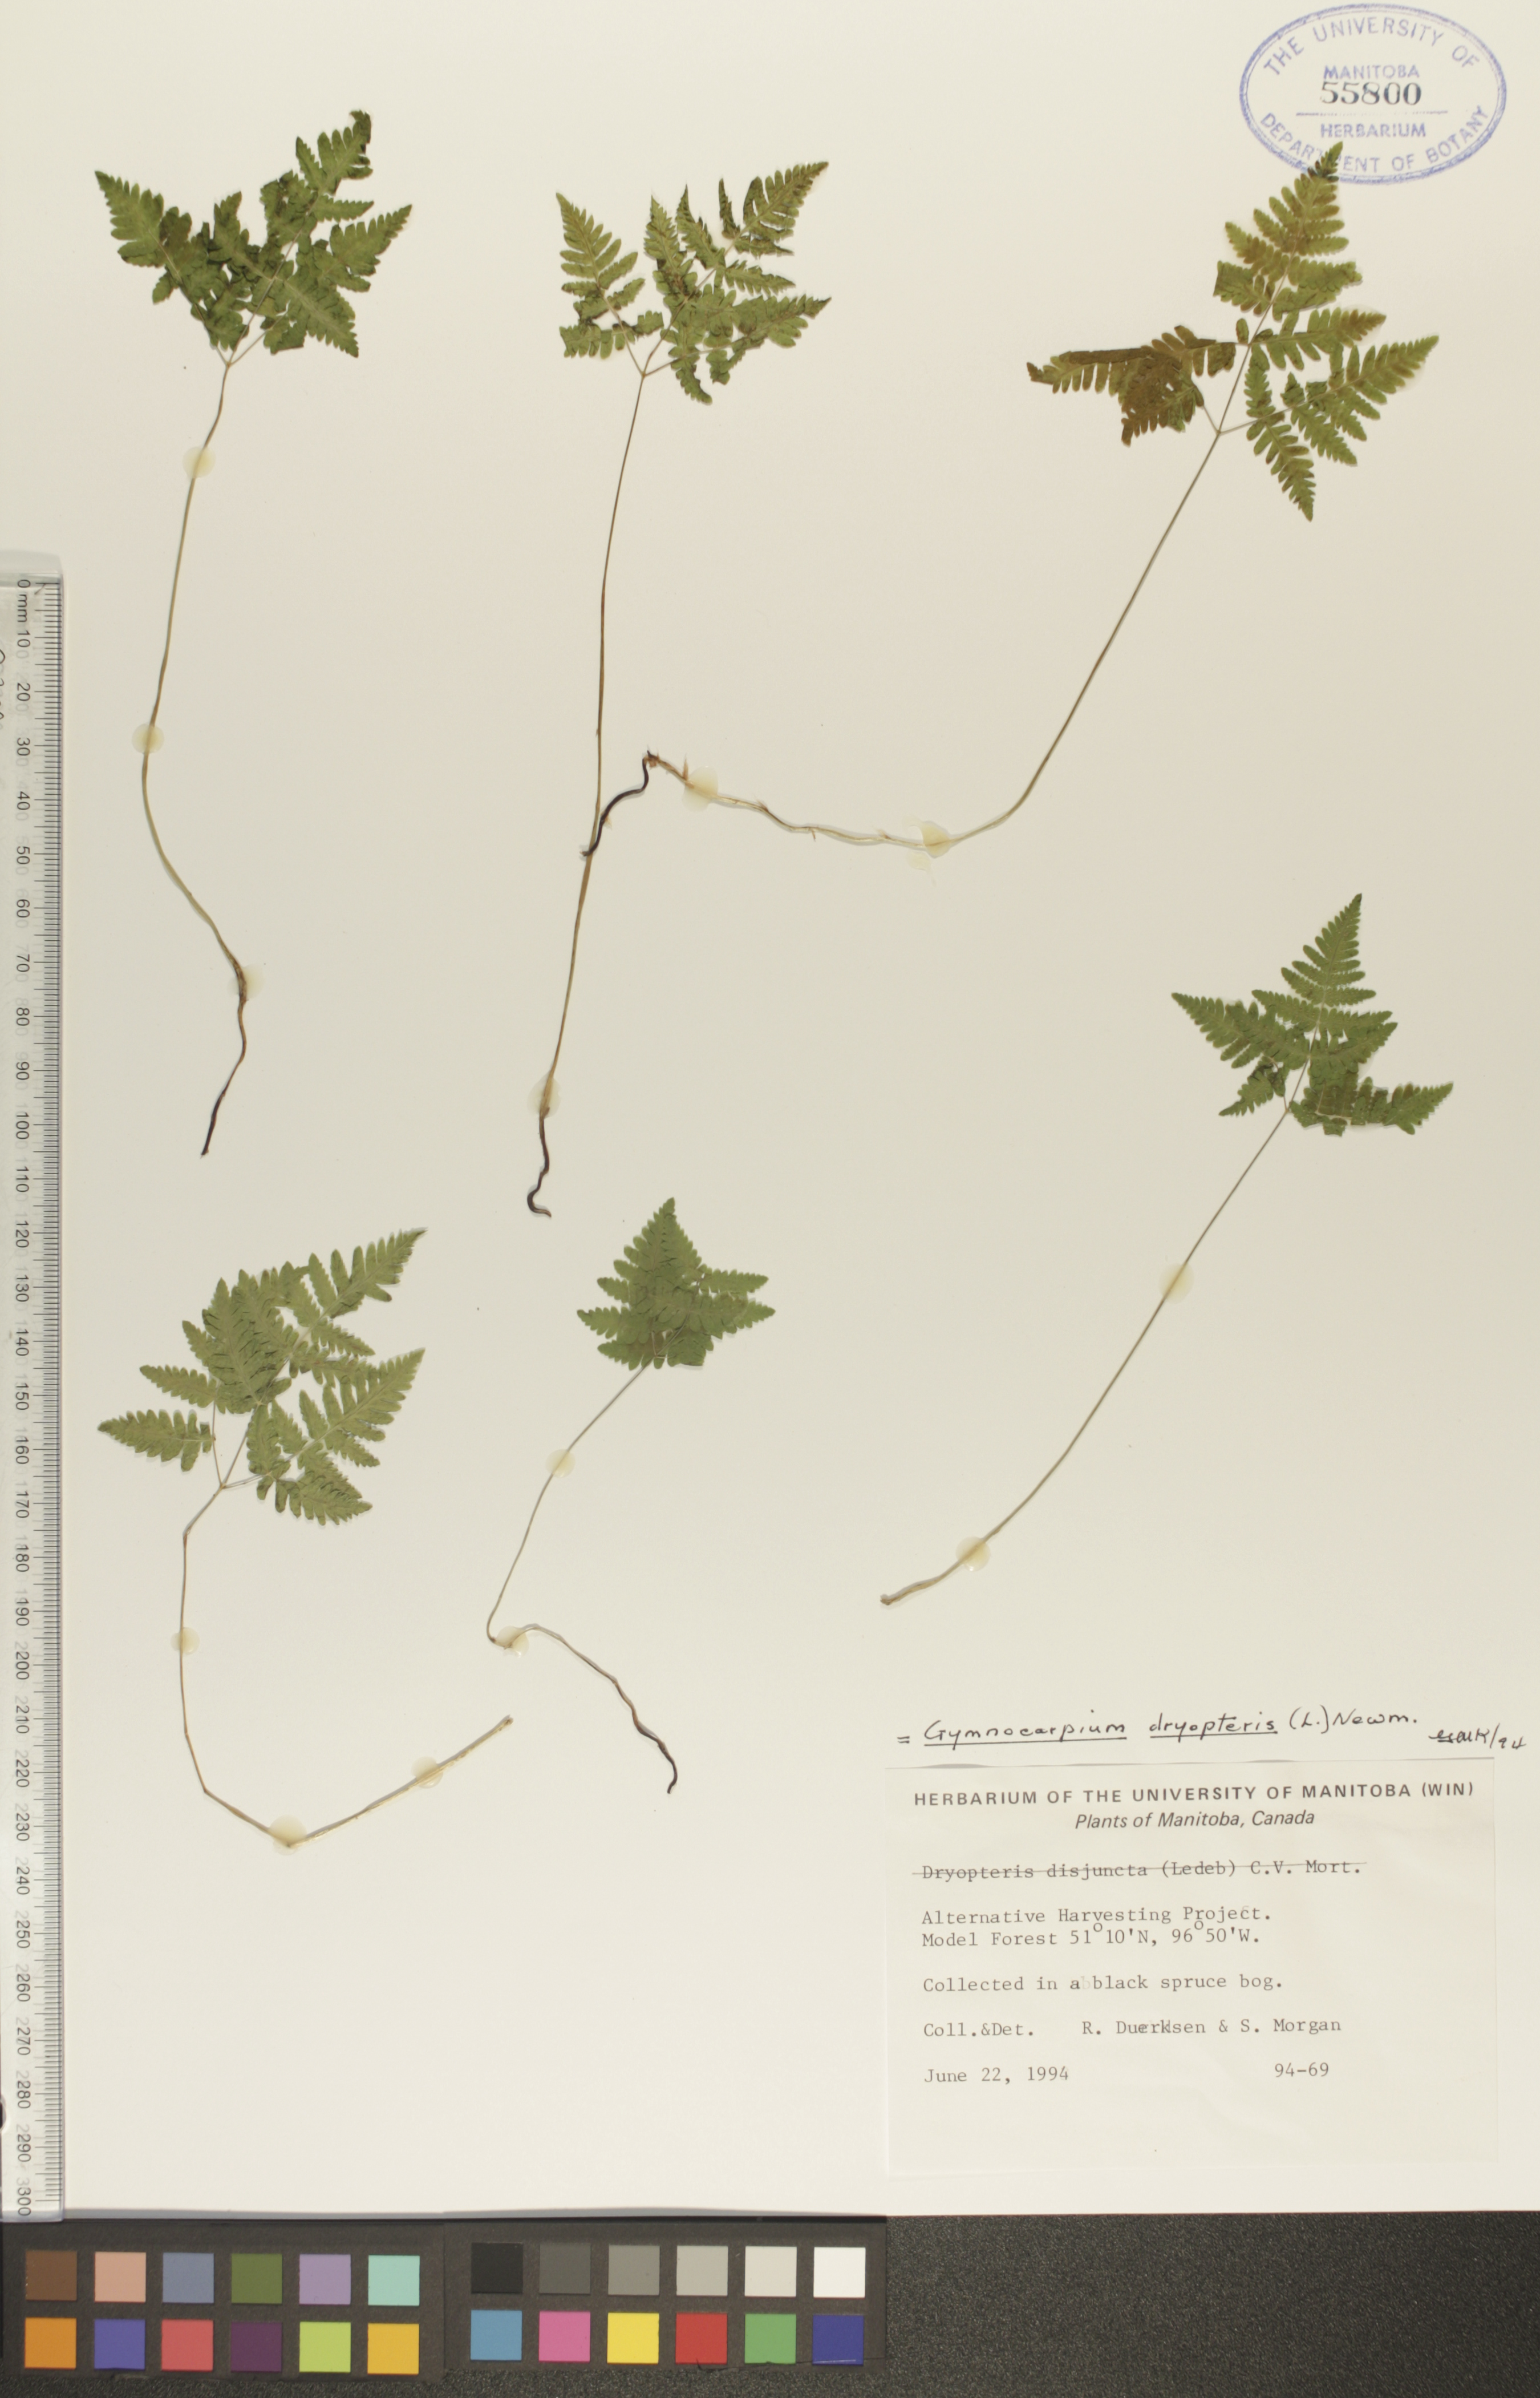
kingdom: Plantae
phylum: Tracheophyta
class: Polypodiopsida
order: Polypodiales
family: Cystopteridaceae
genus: Gymnocarpium
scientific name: Gymnocarpium dryopteris
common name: Oak fern
